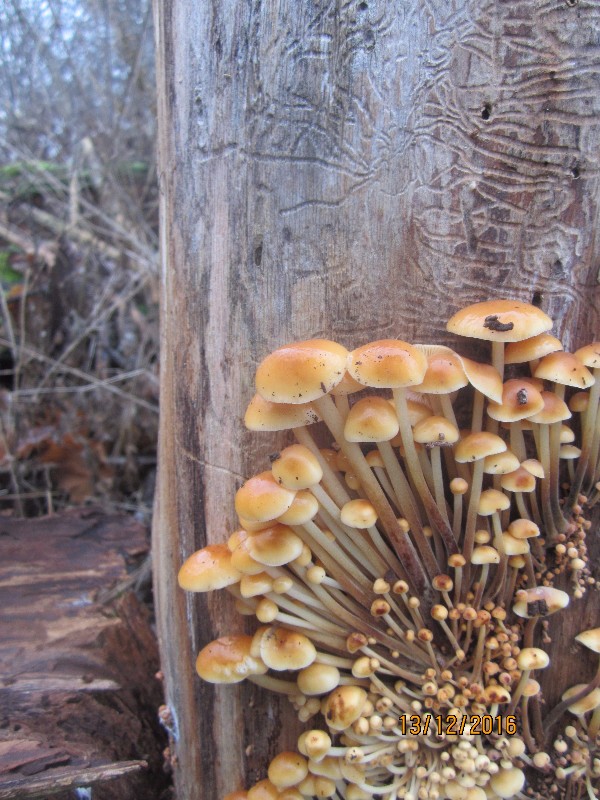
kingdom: Fungi
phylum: Basidiomycota
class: Agaricomycetes
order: Agaricales
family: Physalacriaceae
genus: Flammulina
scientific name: Flammulina velutipes
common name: gul fløjlsfod
